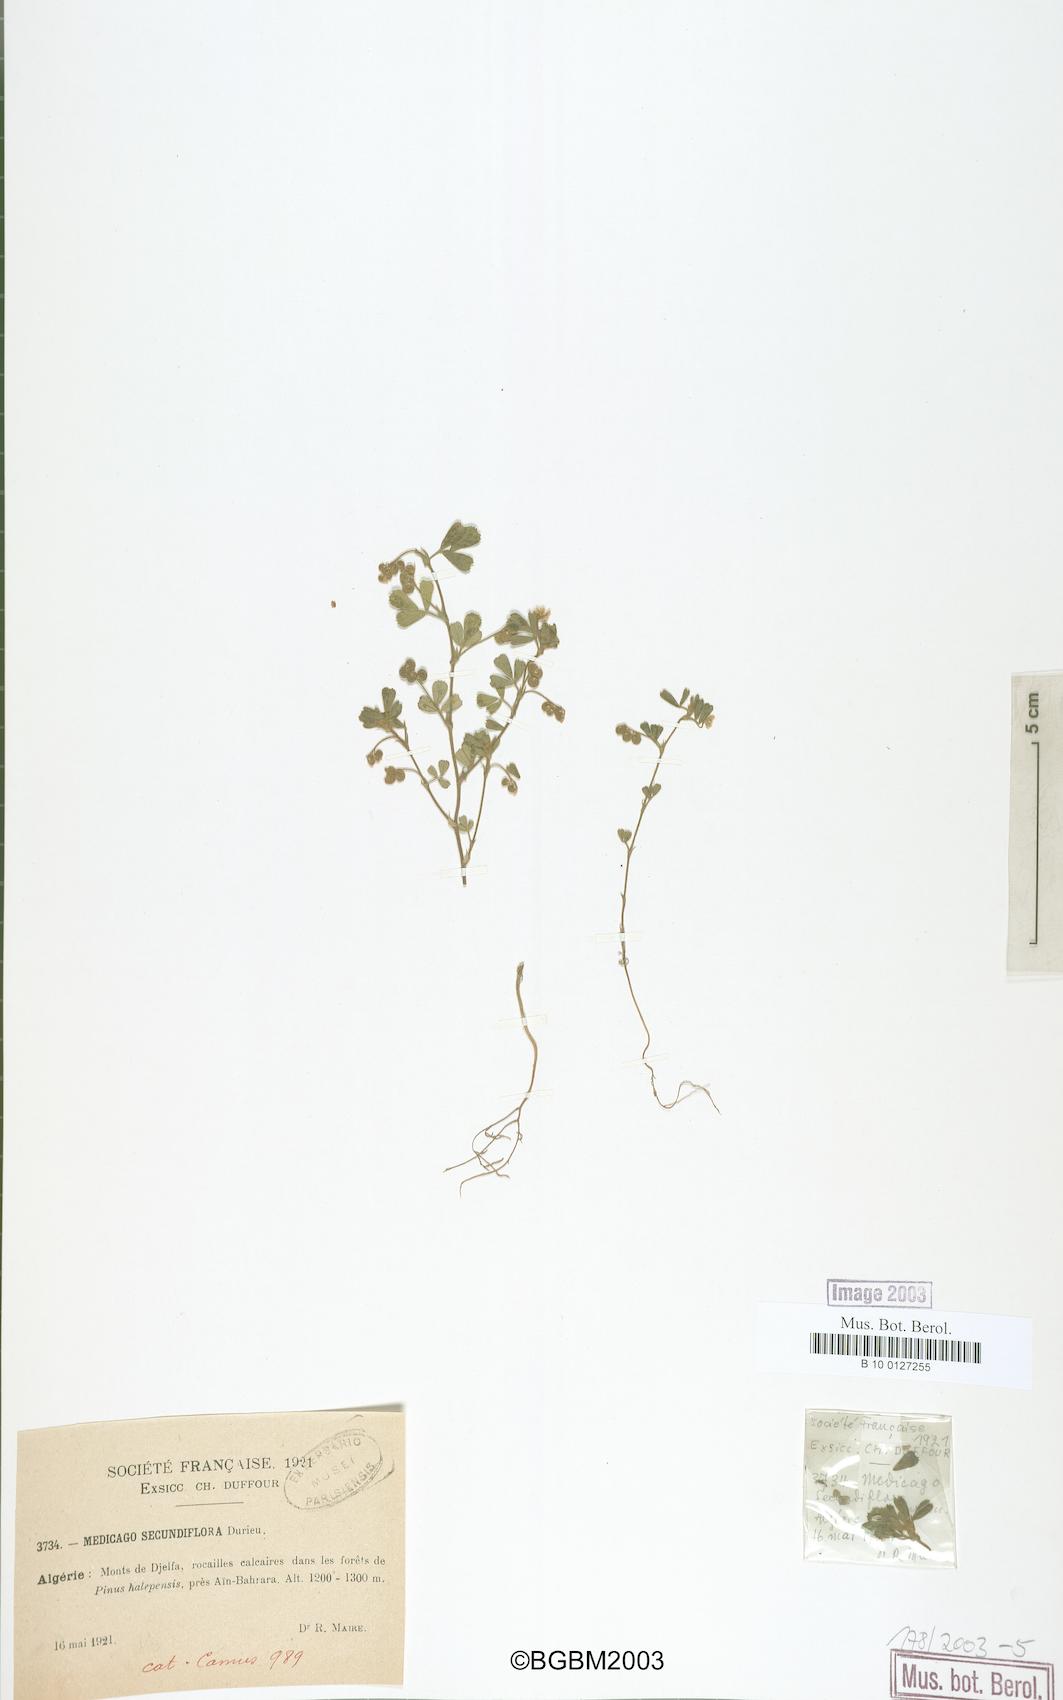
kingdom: Plantae
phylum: Tracheophyta
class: Magnoliopsida
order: Fabales
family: Fabaceae
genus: Medicago
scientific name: Medicago secundiflora
